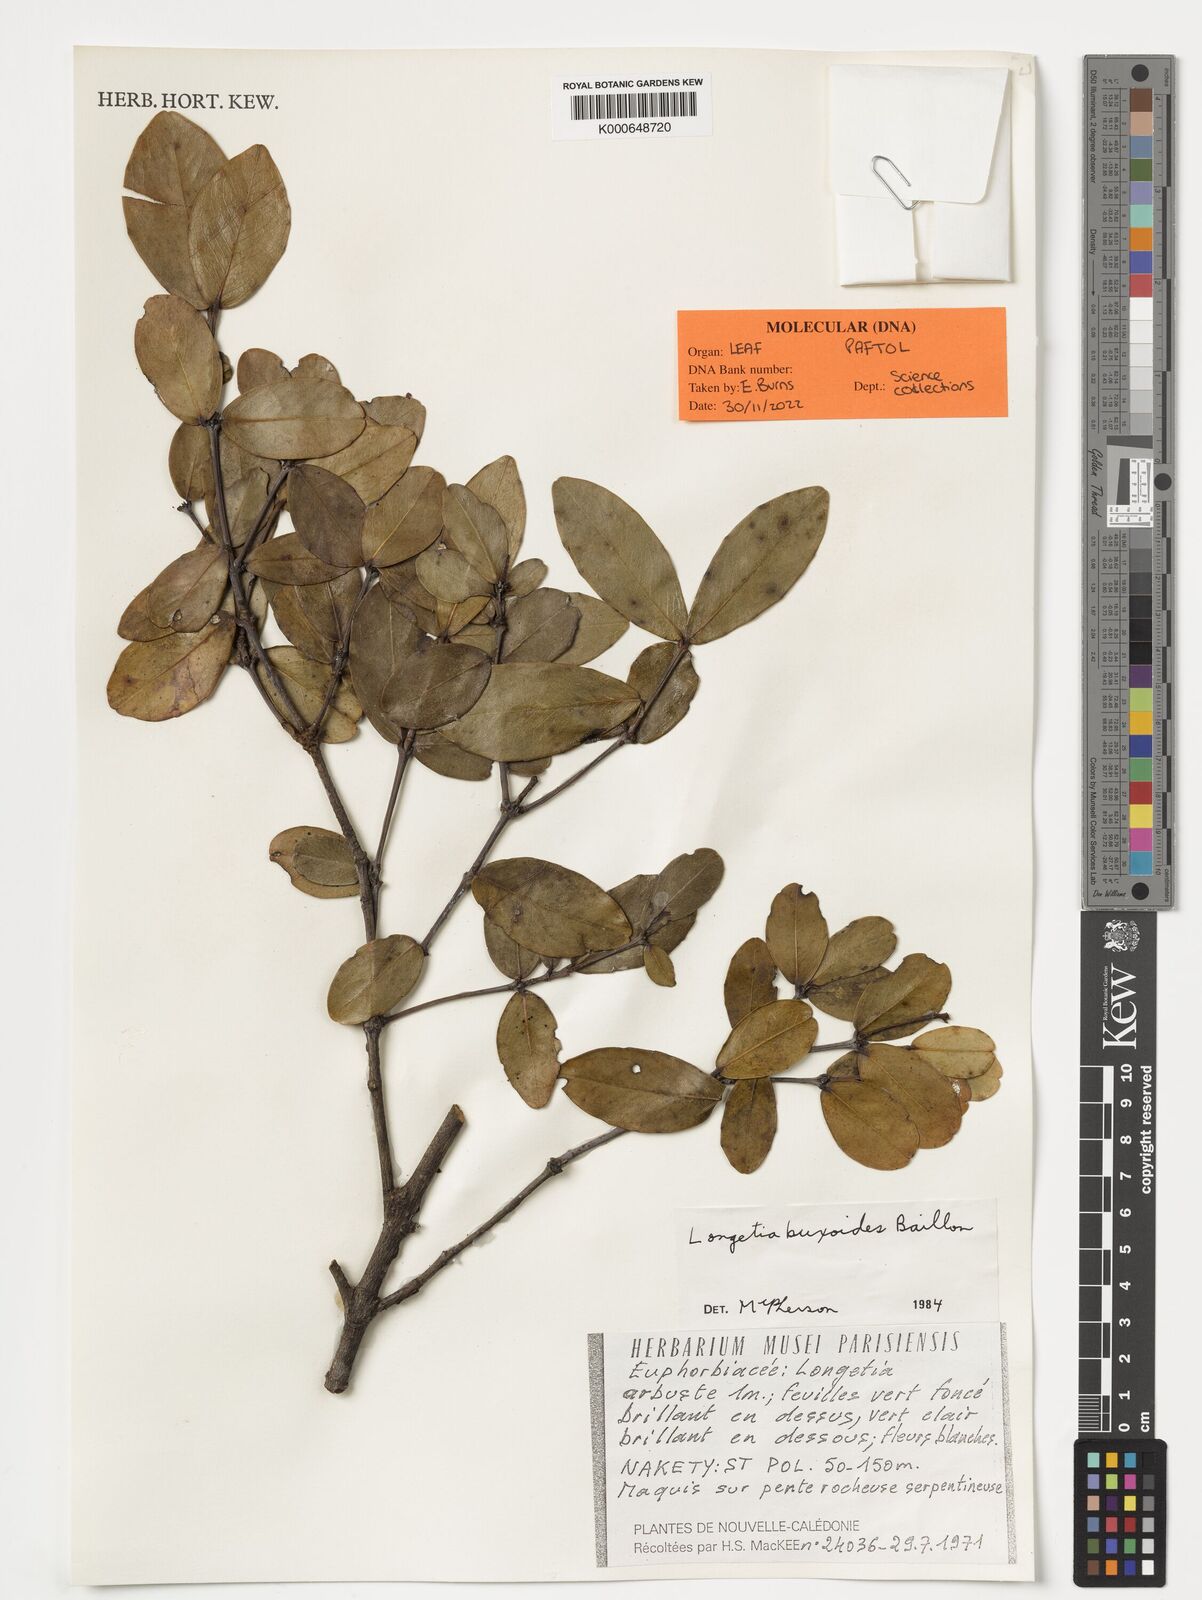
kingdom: Plantae
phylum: Tracheophyta
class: Magnoliopsida
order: Malpighiales
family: Picrodendraceae
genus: Longetia
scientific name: Longetia buxoides
